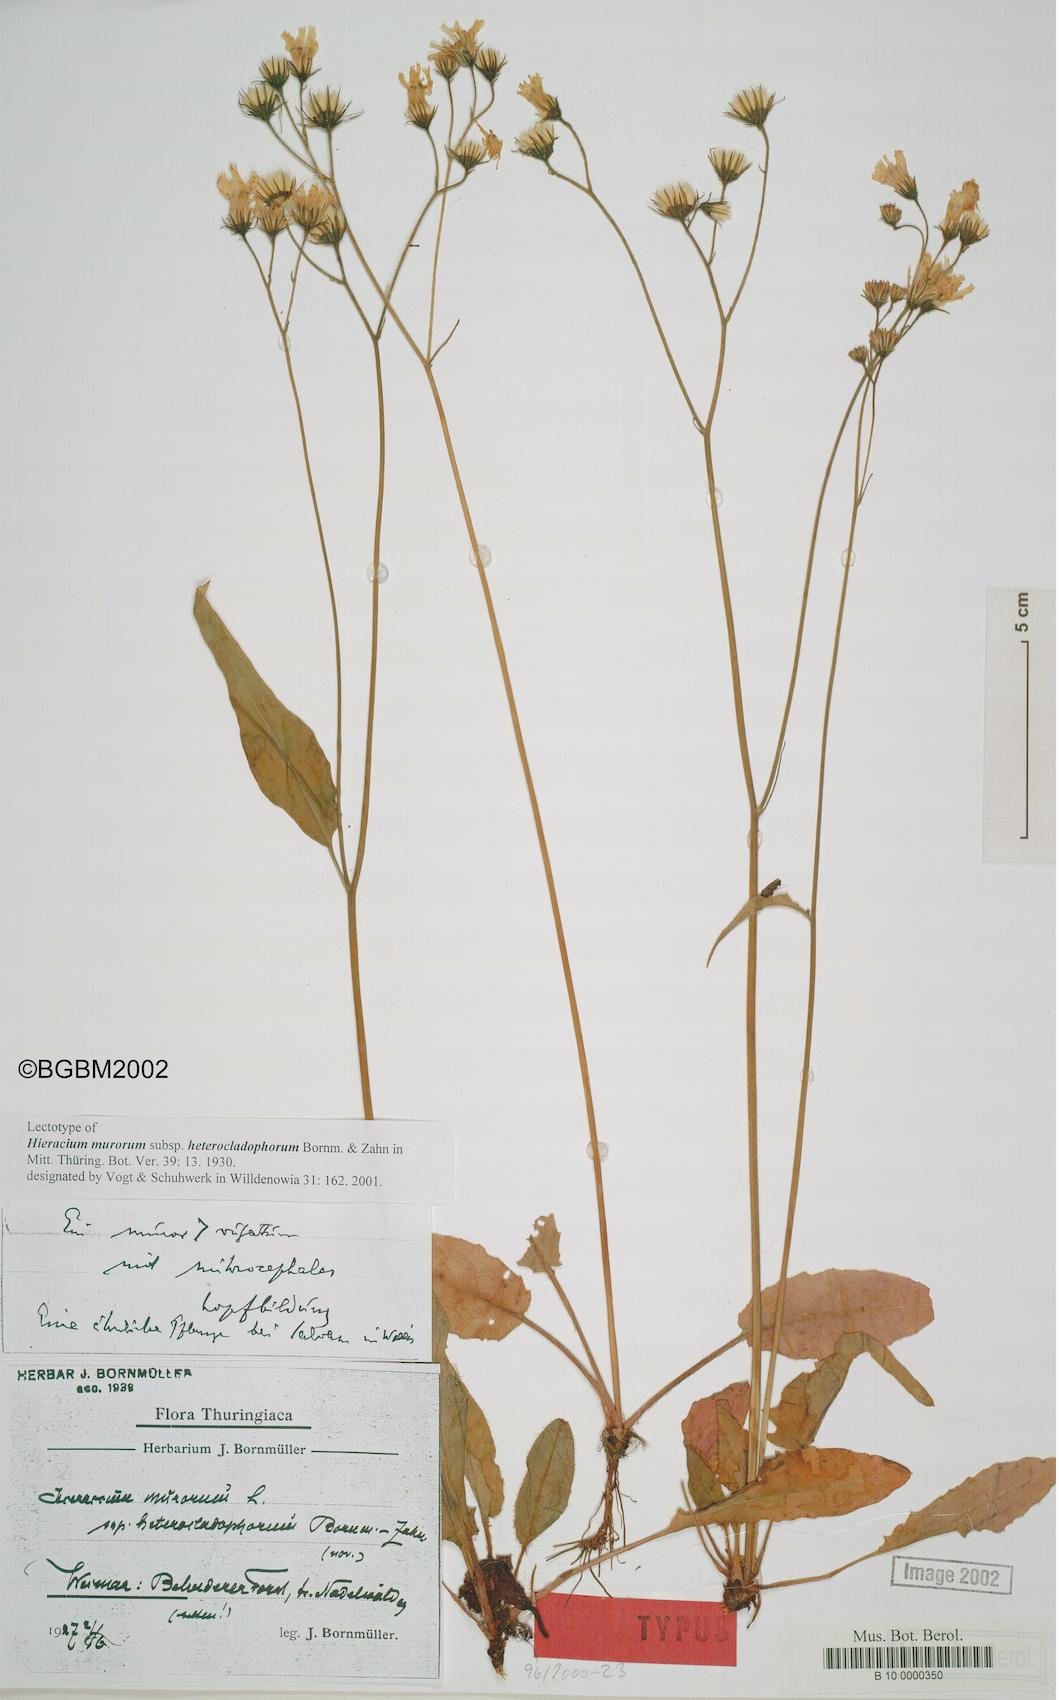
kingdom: Plantae
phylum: Tracheophyta
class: Magnoliopsida
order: Asterales
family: Asteraceae
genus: Hieracium
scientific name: Hieracium murorum
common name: Wall hawkweed
